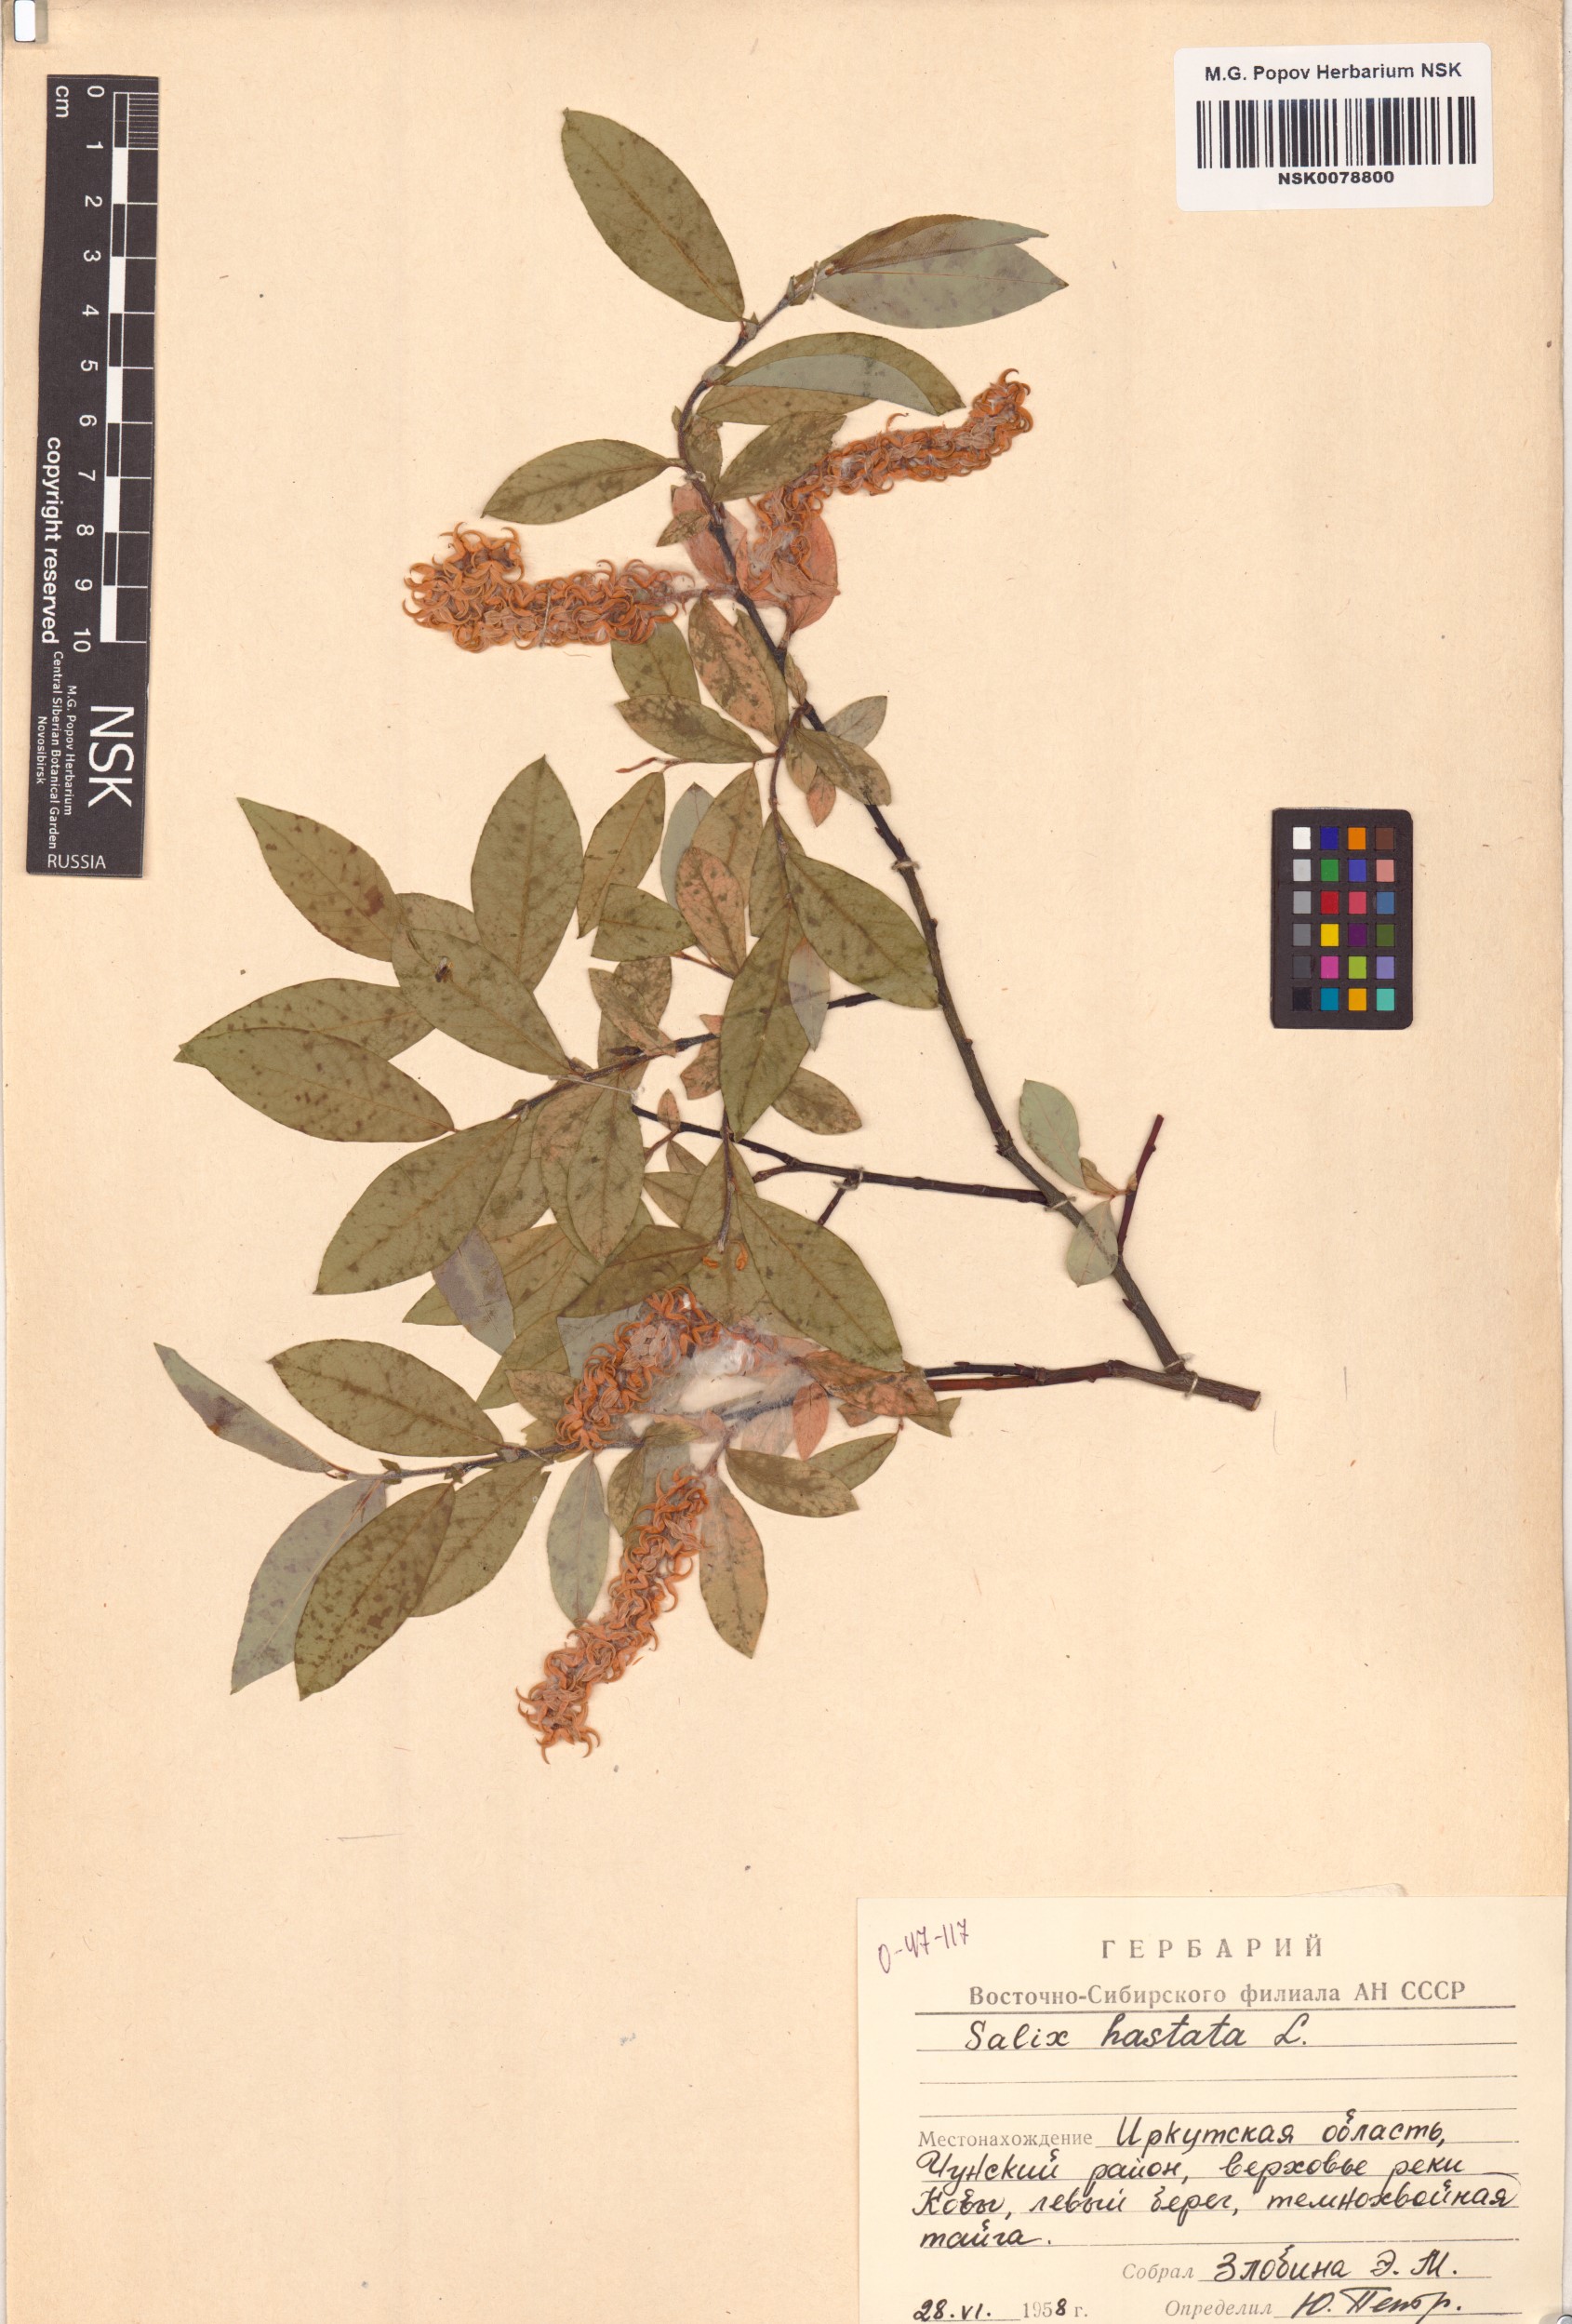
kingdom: Plantae
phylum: Tracheophyta
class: Magnoliopsida
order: Malpighiales
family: Salicaceae
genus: Salix
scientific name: Salix hastata
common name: Halberd willow
